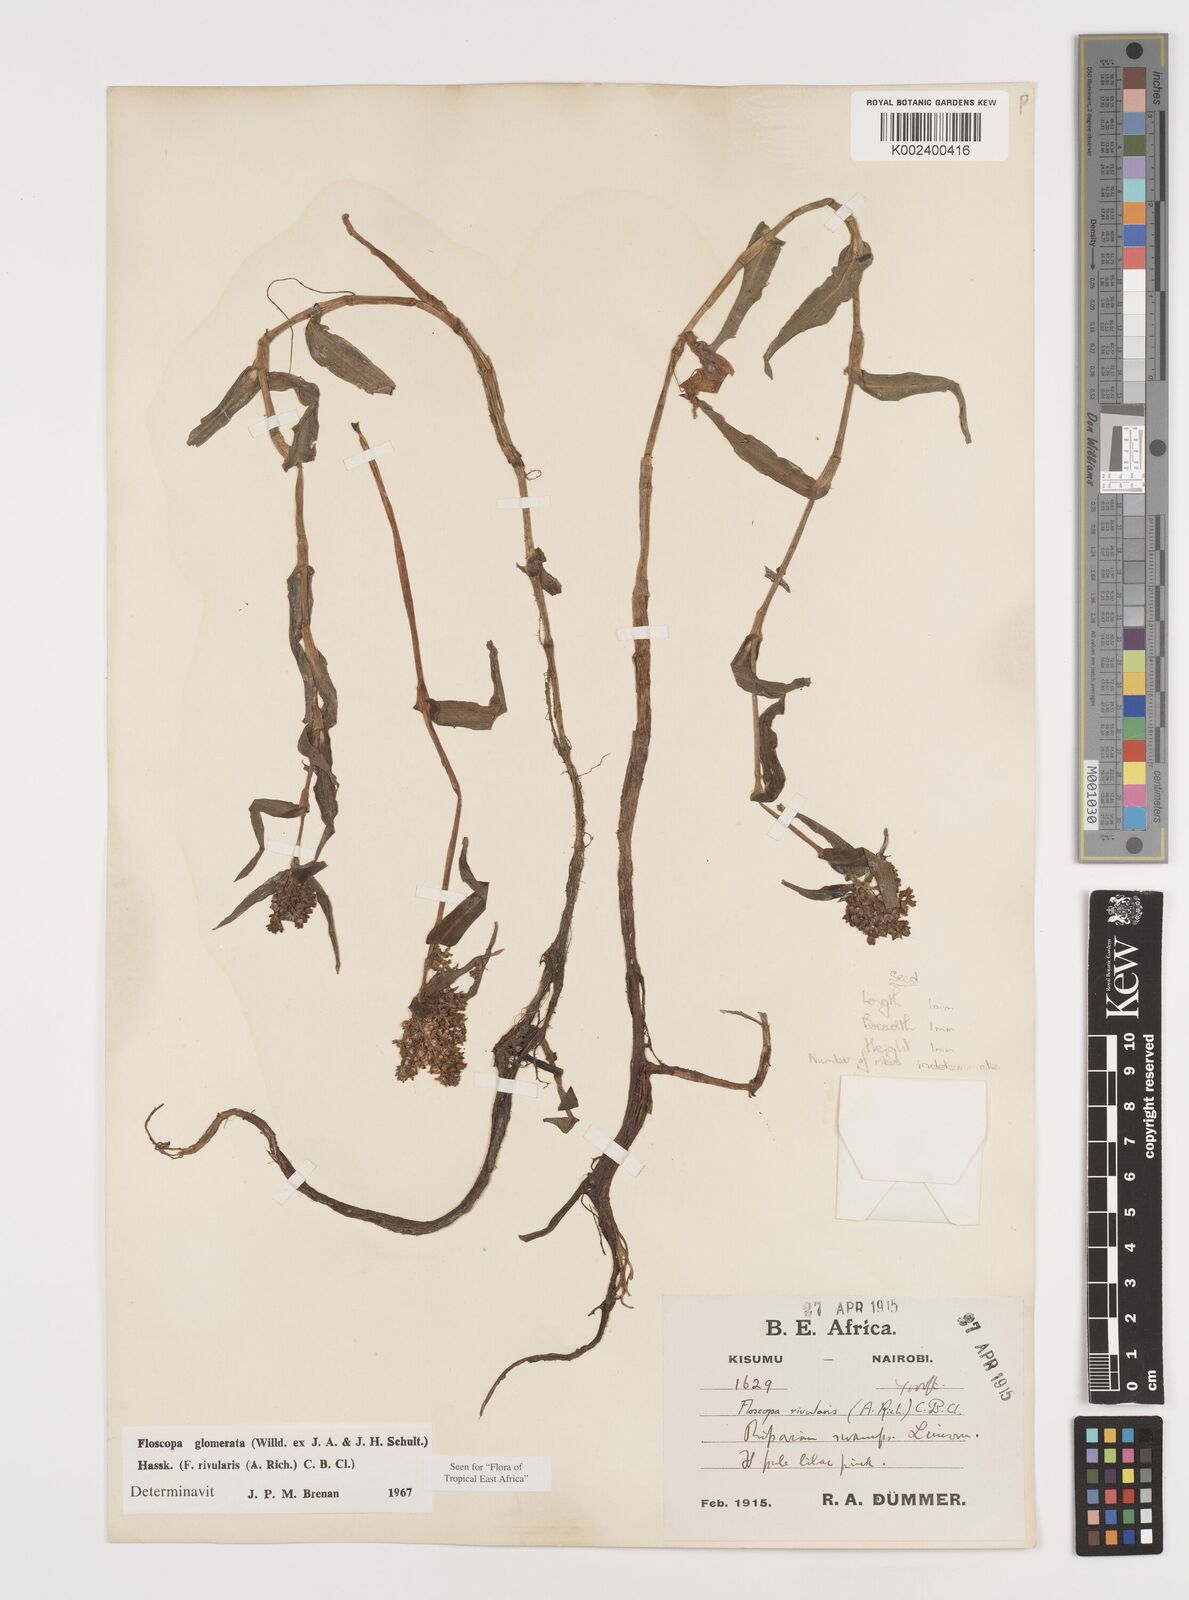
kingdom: Plantae
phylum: Tracheophyta
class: Liliopsida
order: Commelinales
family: Commelinaceae
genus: Floscopa
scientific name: Floscopa glomerata
